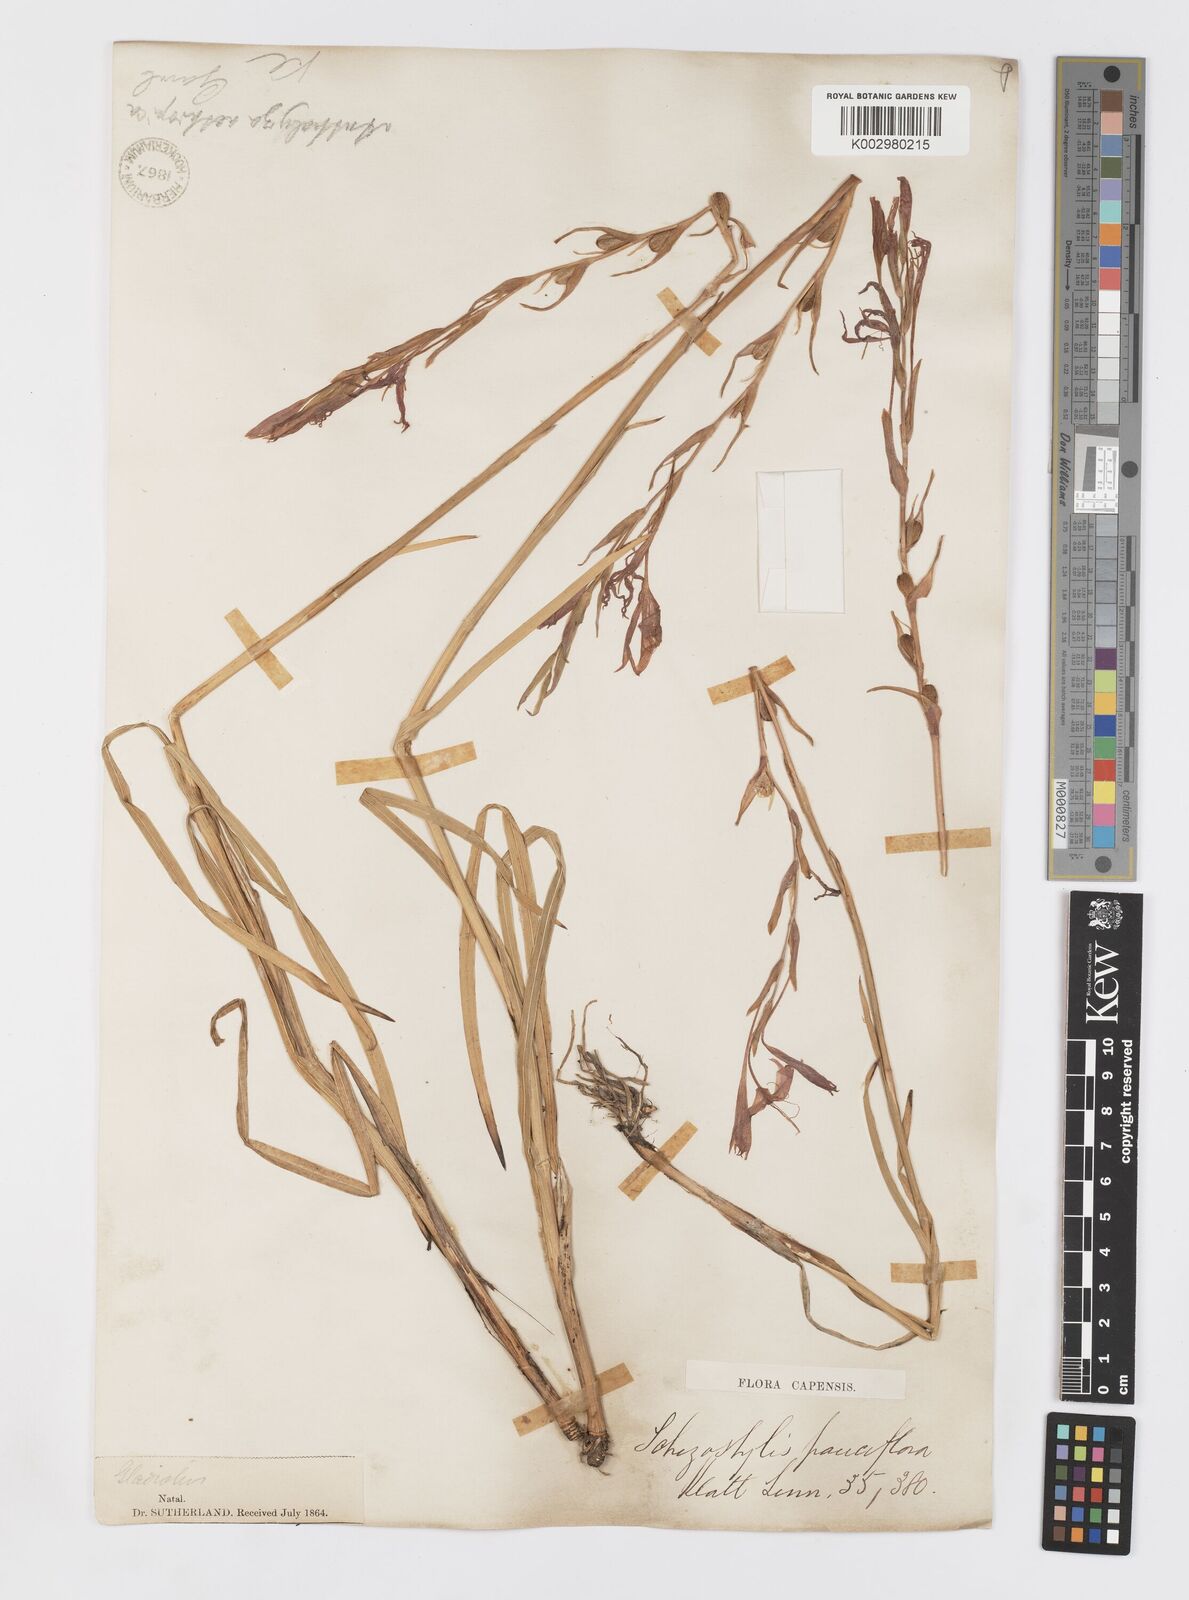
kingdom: Plantae
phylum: Tracheophyta
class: Liliopsida
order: Asparagales
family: Iridaceae
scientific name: Iridaceae
